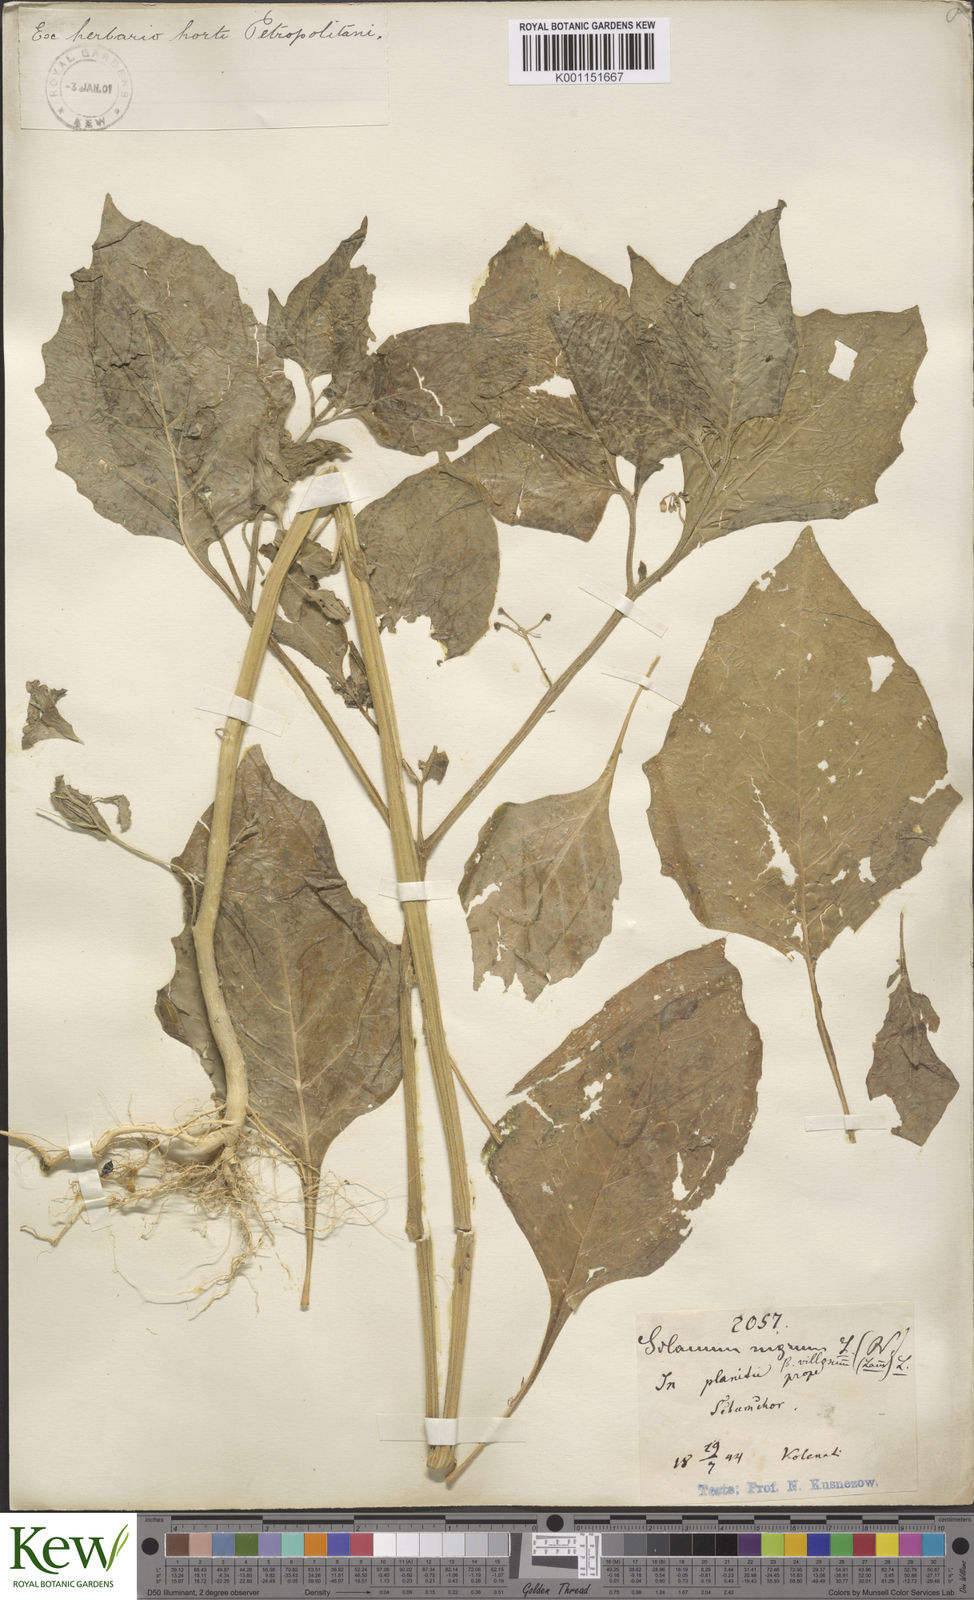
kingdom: Plantae
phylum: Tracheophyta
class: Magnoliopsida
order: Solanales
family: Solanaceae
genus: Solanum
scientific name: Solanum nigrum
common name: Black nightshade
